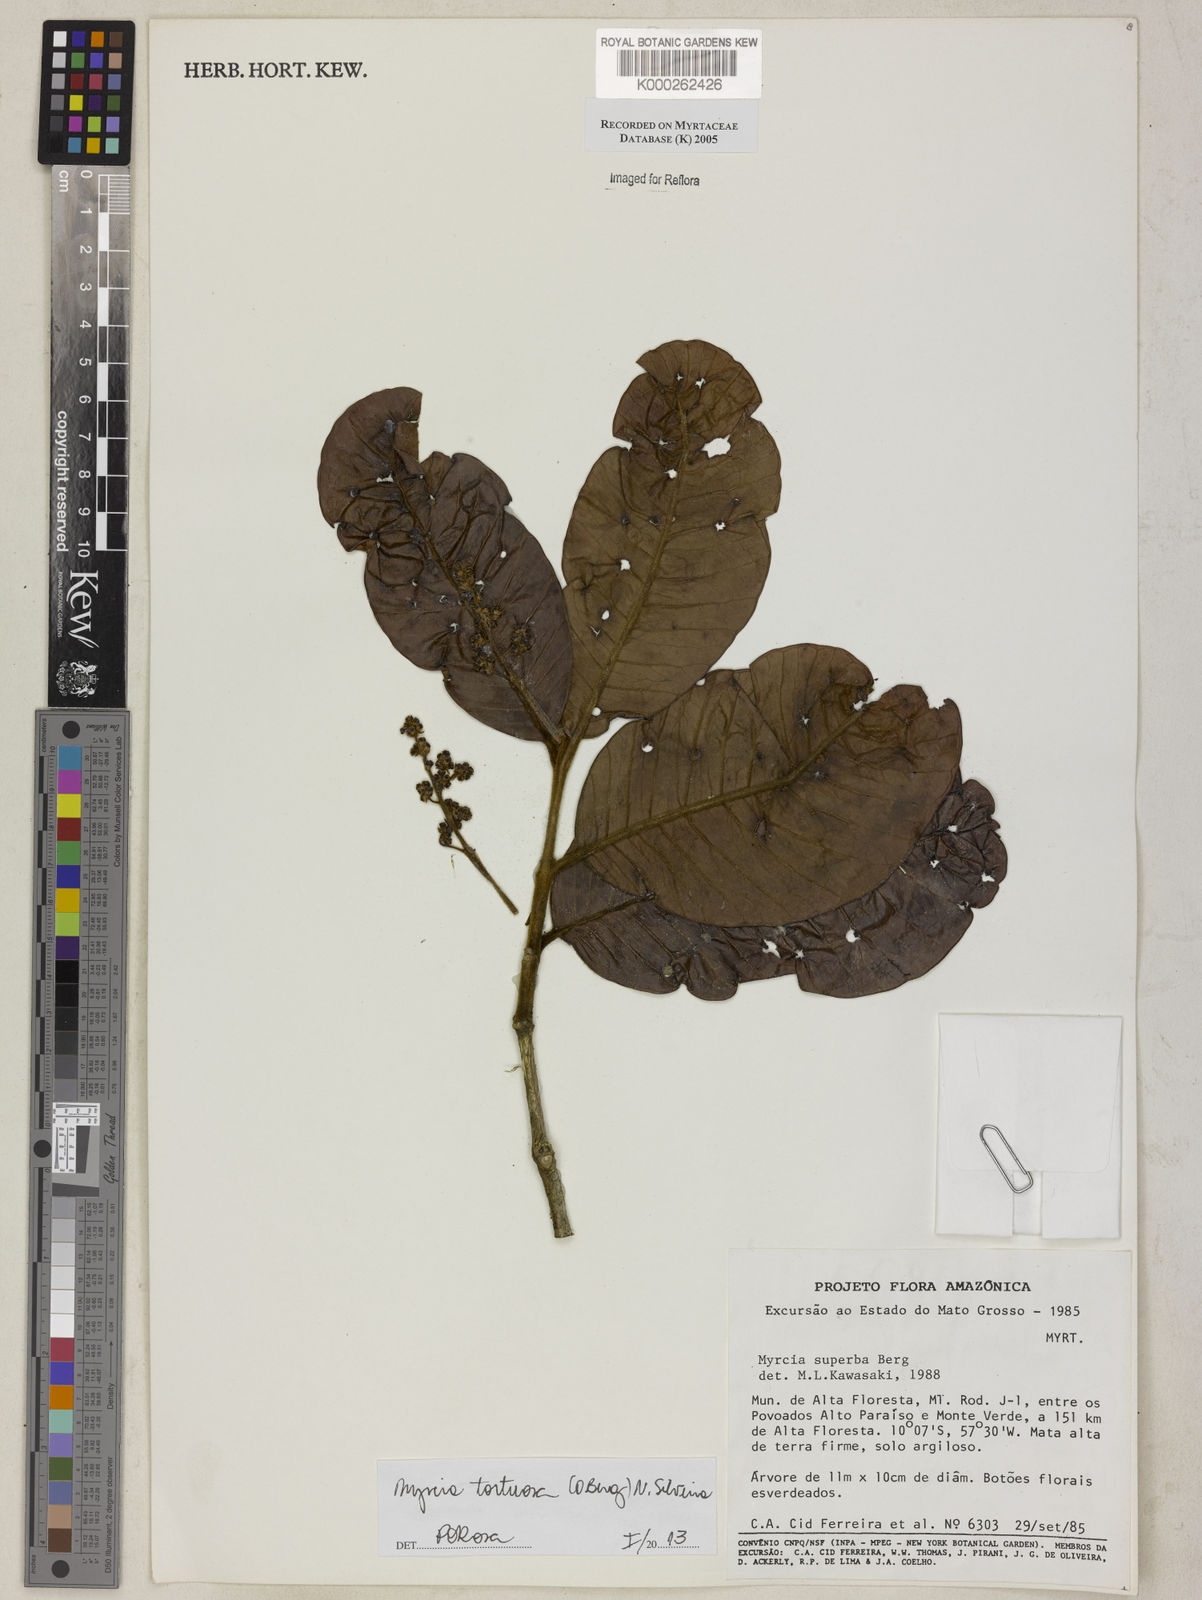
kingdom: Plantae
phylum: Tracheophyta
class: Magnoliopsida
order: Myrtales
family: Myrtaceae
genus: Myrcia
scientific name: Myrcia splendens
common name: Surinam cherry
